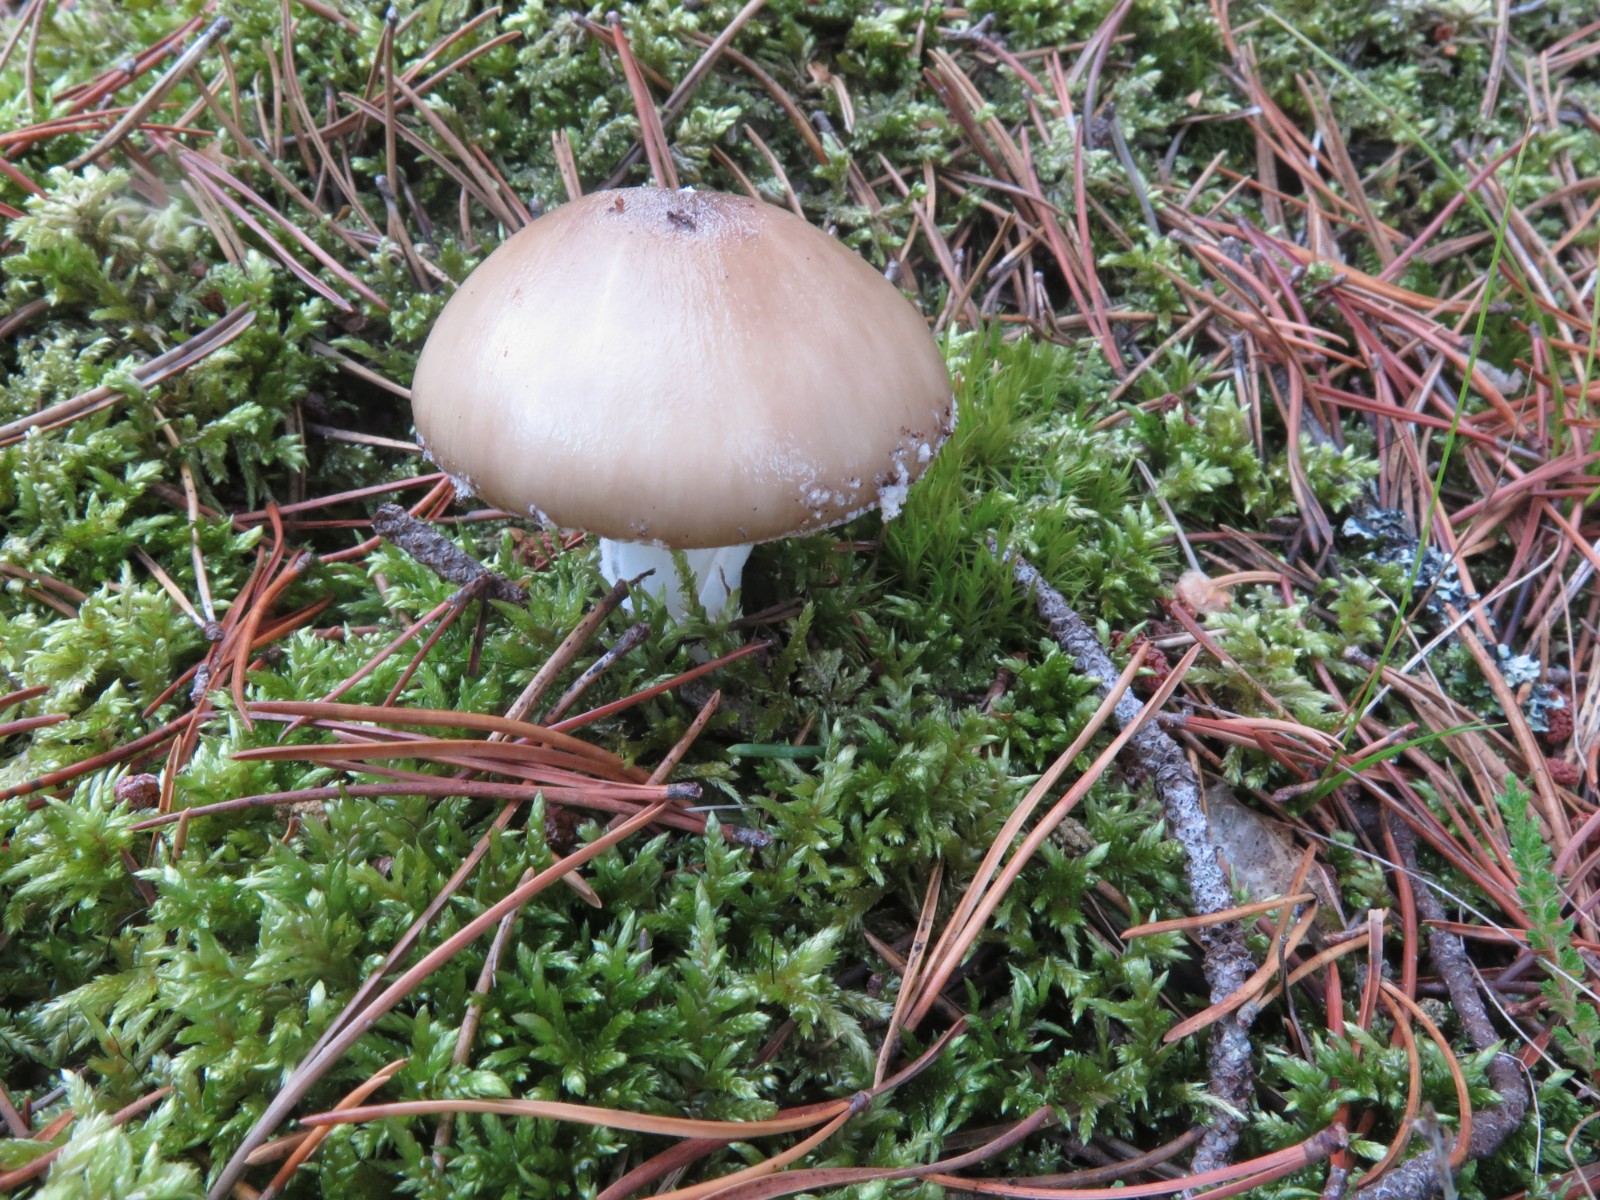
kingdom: Fungi
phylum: Basidiomycota
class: Agaricomycetes
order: Agaricales
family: Amanitaceae
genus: Amanita
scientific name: Amanita pantherina
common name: panter-fluesvamp
